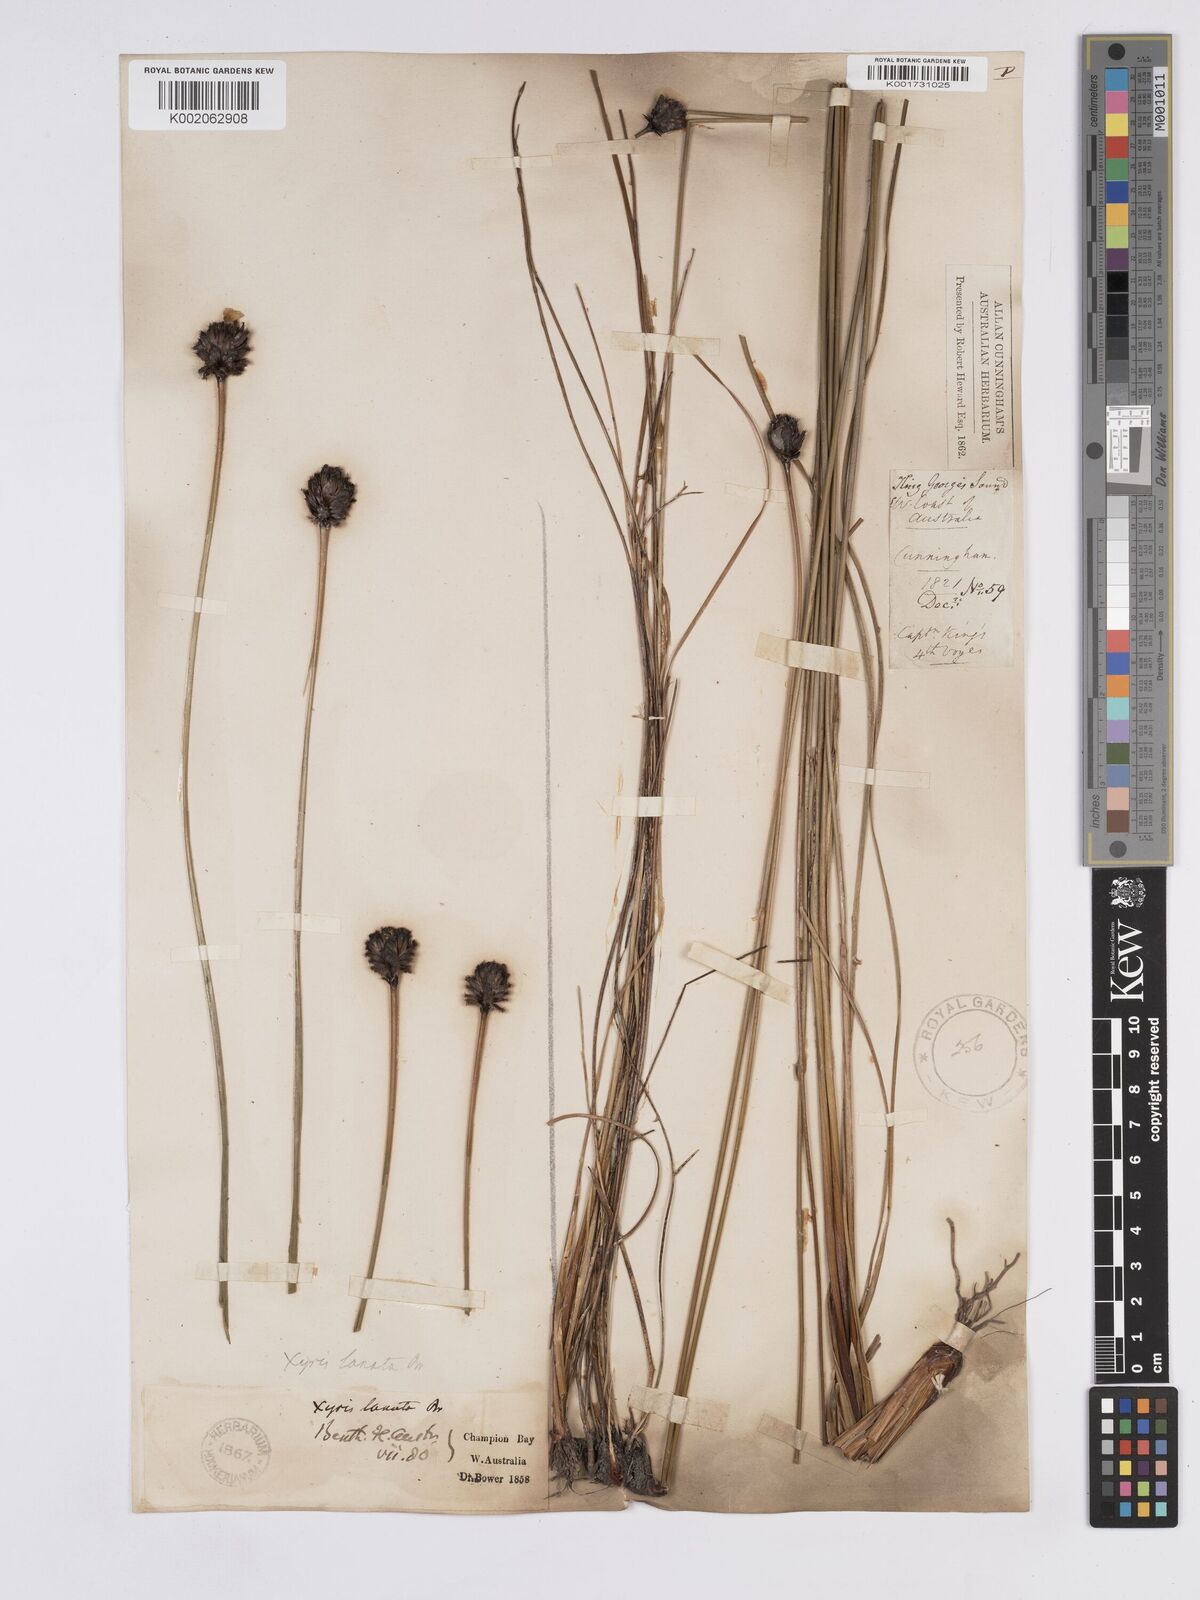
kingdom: Plantae
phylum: Tracheophyta
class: Liliopsida
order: Poales
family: Xyridaceae
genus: Xyris
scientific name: Xyris lanata
